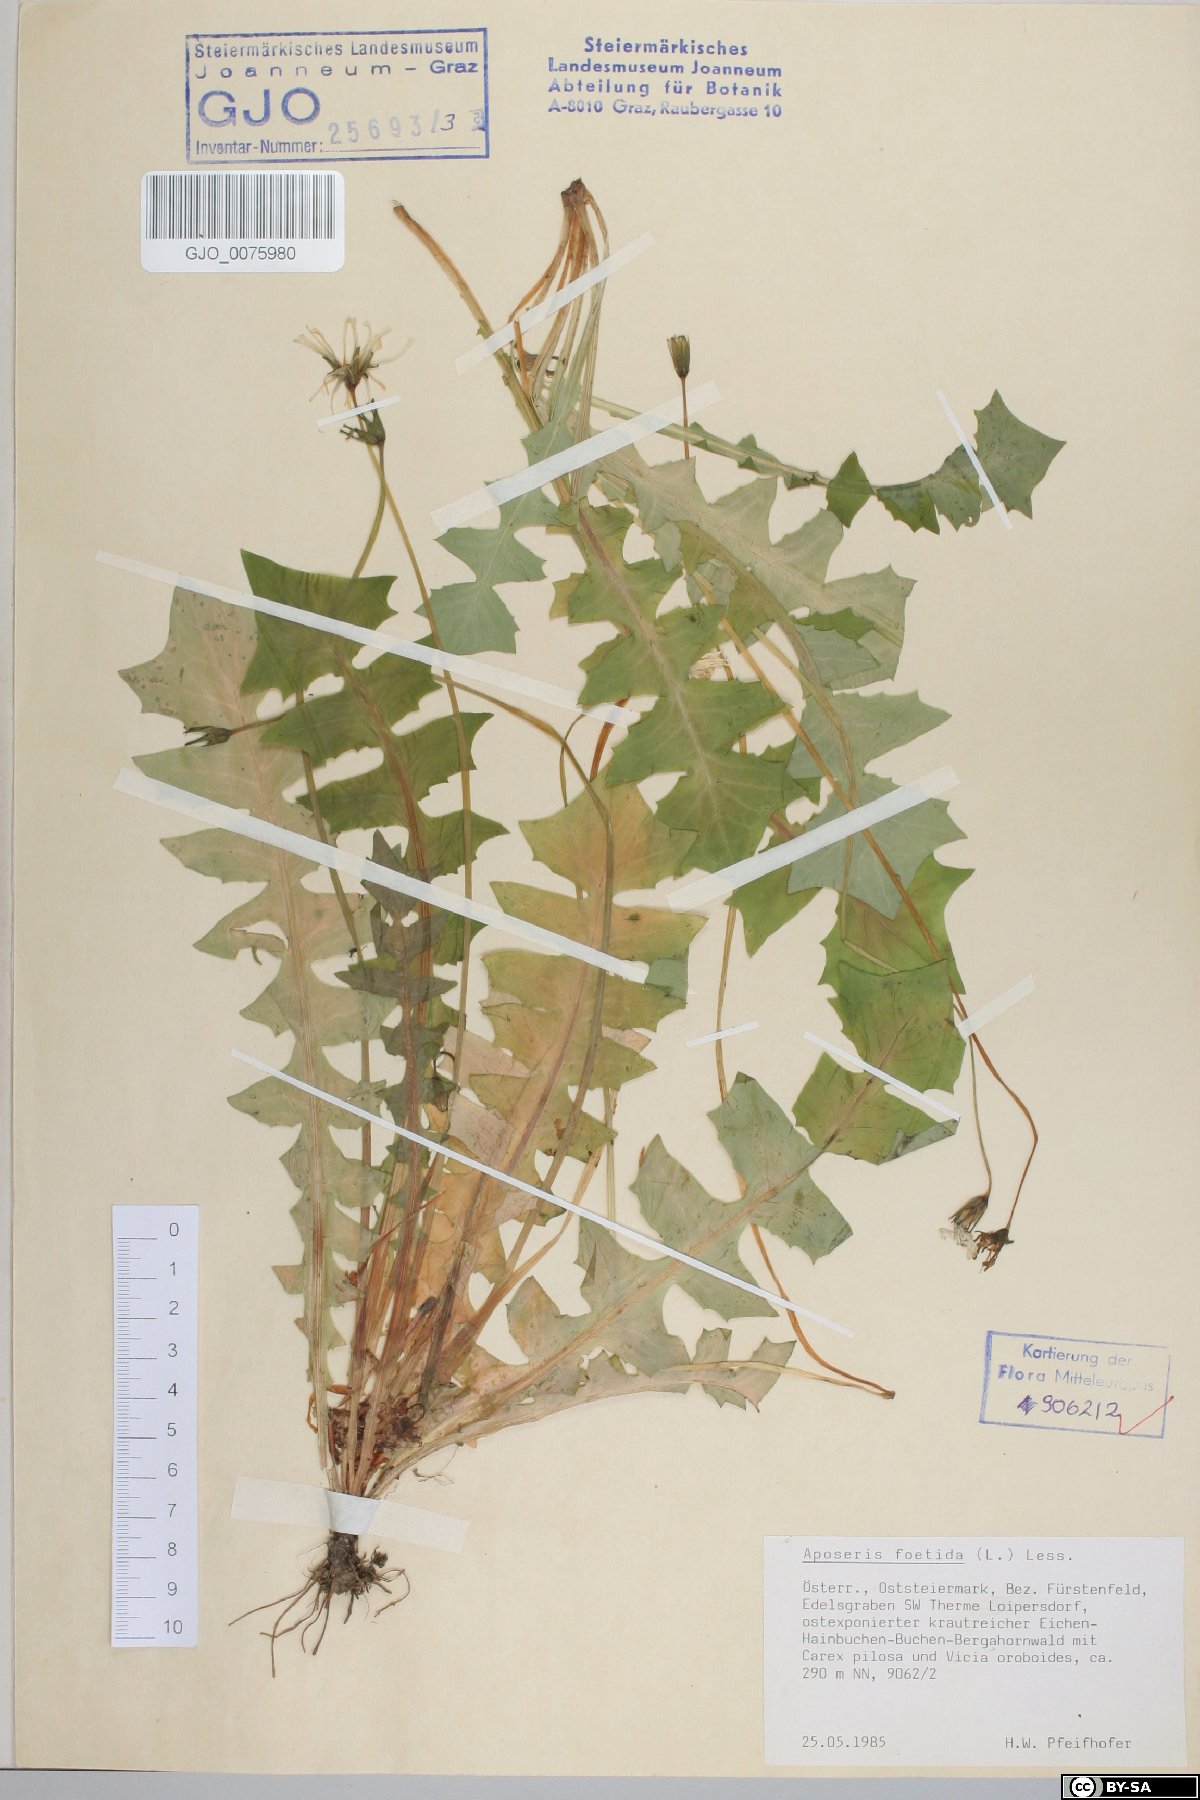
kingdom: Plantae
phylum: Tracheophyta
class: Magnoliopsida
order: Asterales
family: Asteraceae
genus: Aposeris
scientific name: Aposeris foetida
